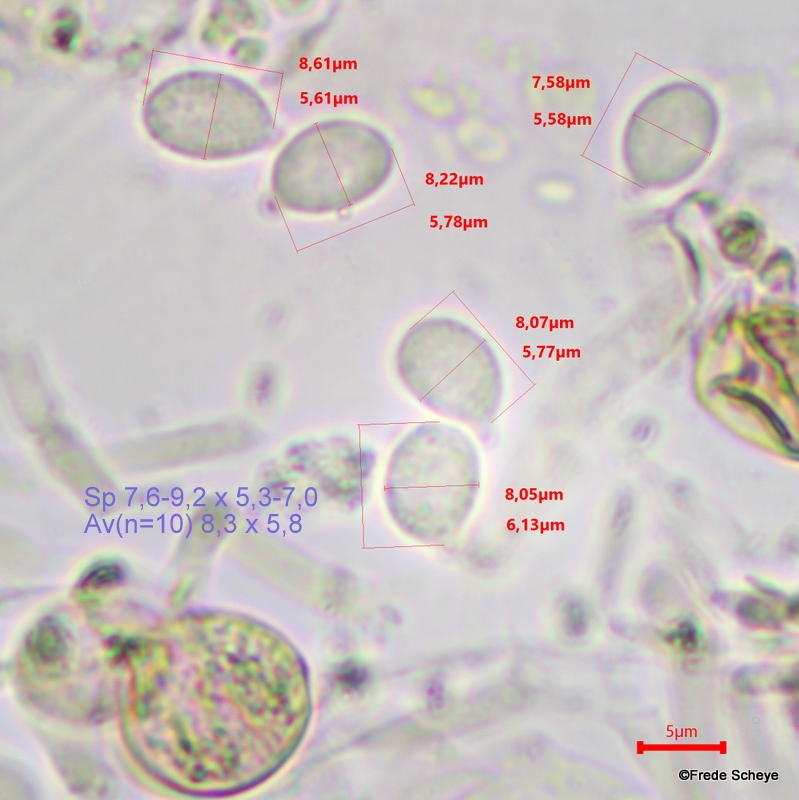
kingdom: Fungi
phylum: Basidiomycota
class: Tremellomycetes
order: Tremellales
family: Tremellaceae
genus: Phaeotremella
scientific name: Phaeotremella frondosa
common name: kæmpe-bævresvamp
